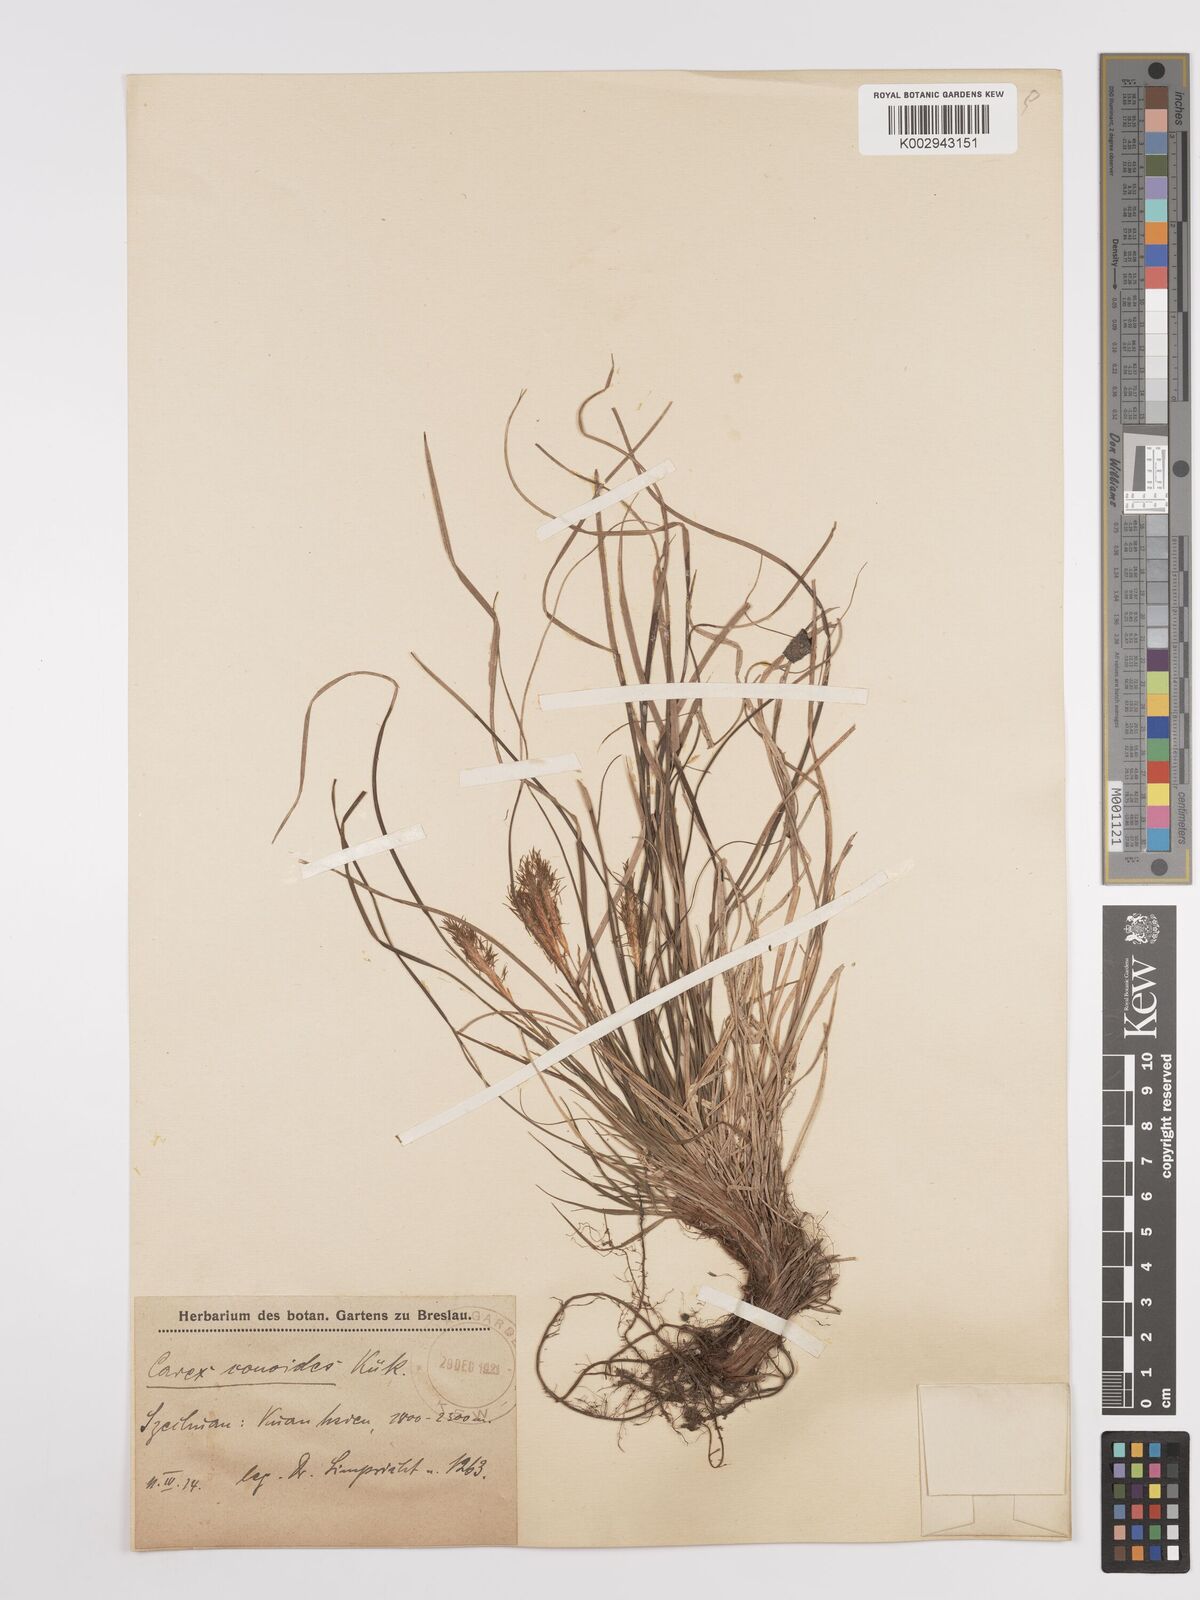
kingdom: Plantae
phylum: Tracheophyta
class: Liliopsida
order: Poales
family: Cyperaceae
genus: Carex
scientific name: Carex
